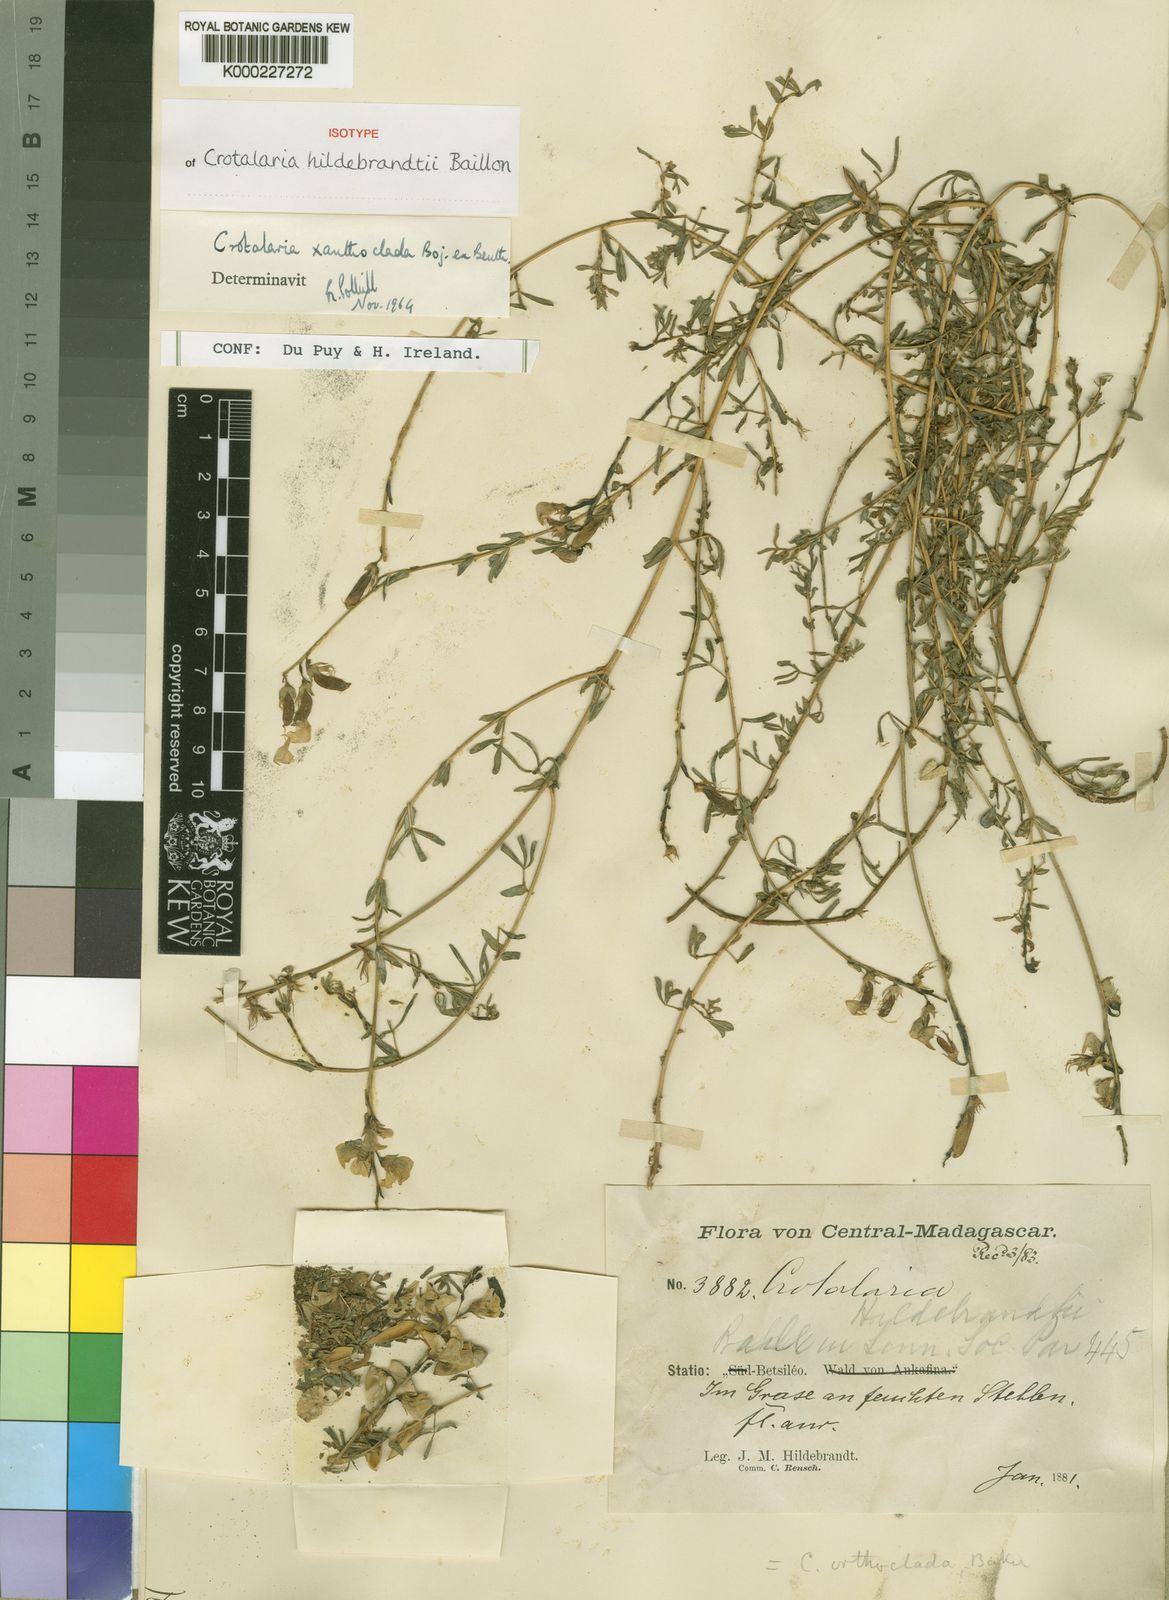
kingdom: Plantae
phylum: Tracheophyta
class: Magnoliopsida
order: Fabales
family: Fabaceae
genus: Crotalaria
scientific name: Crotalaria xanthoclada
